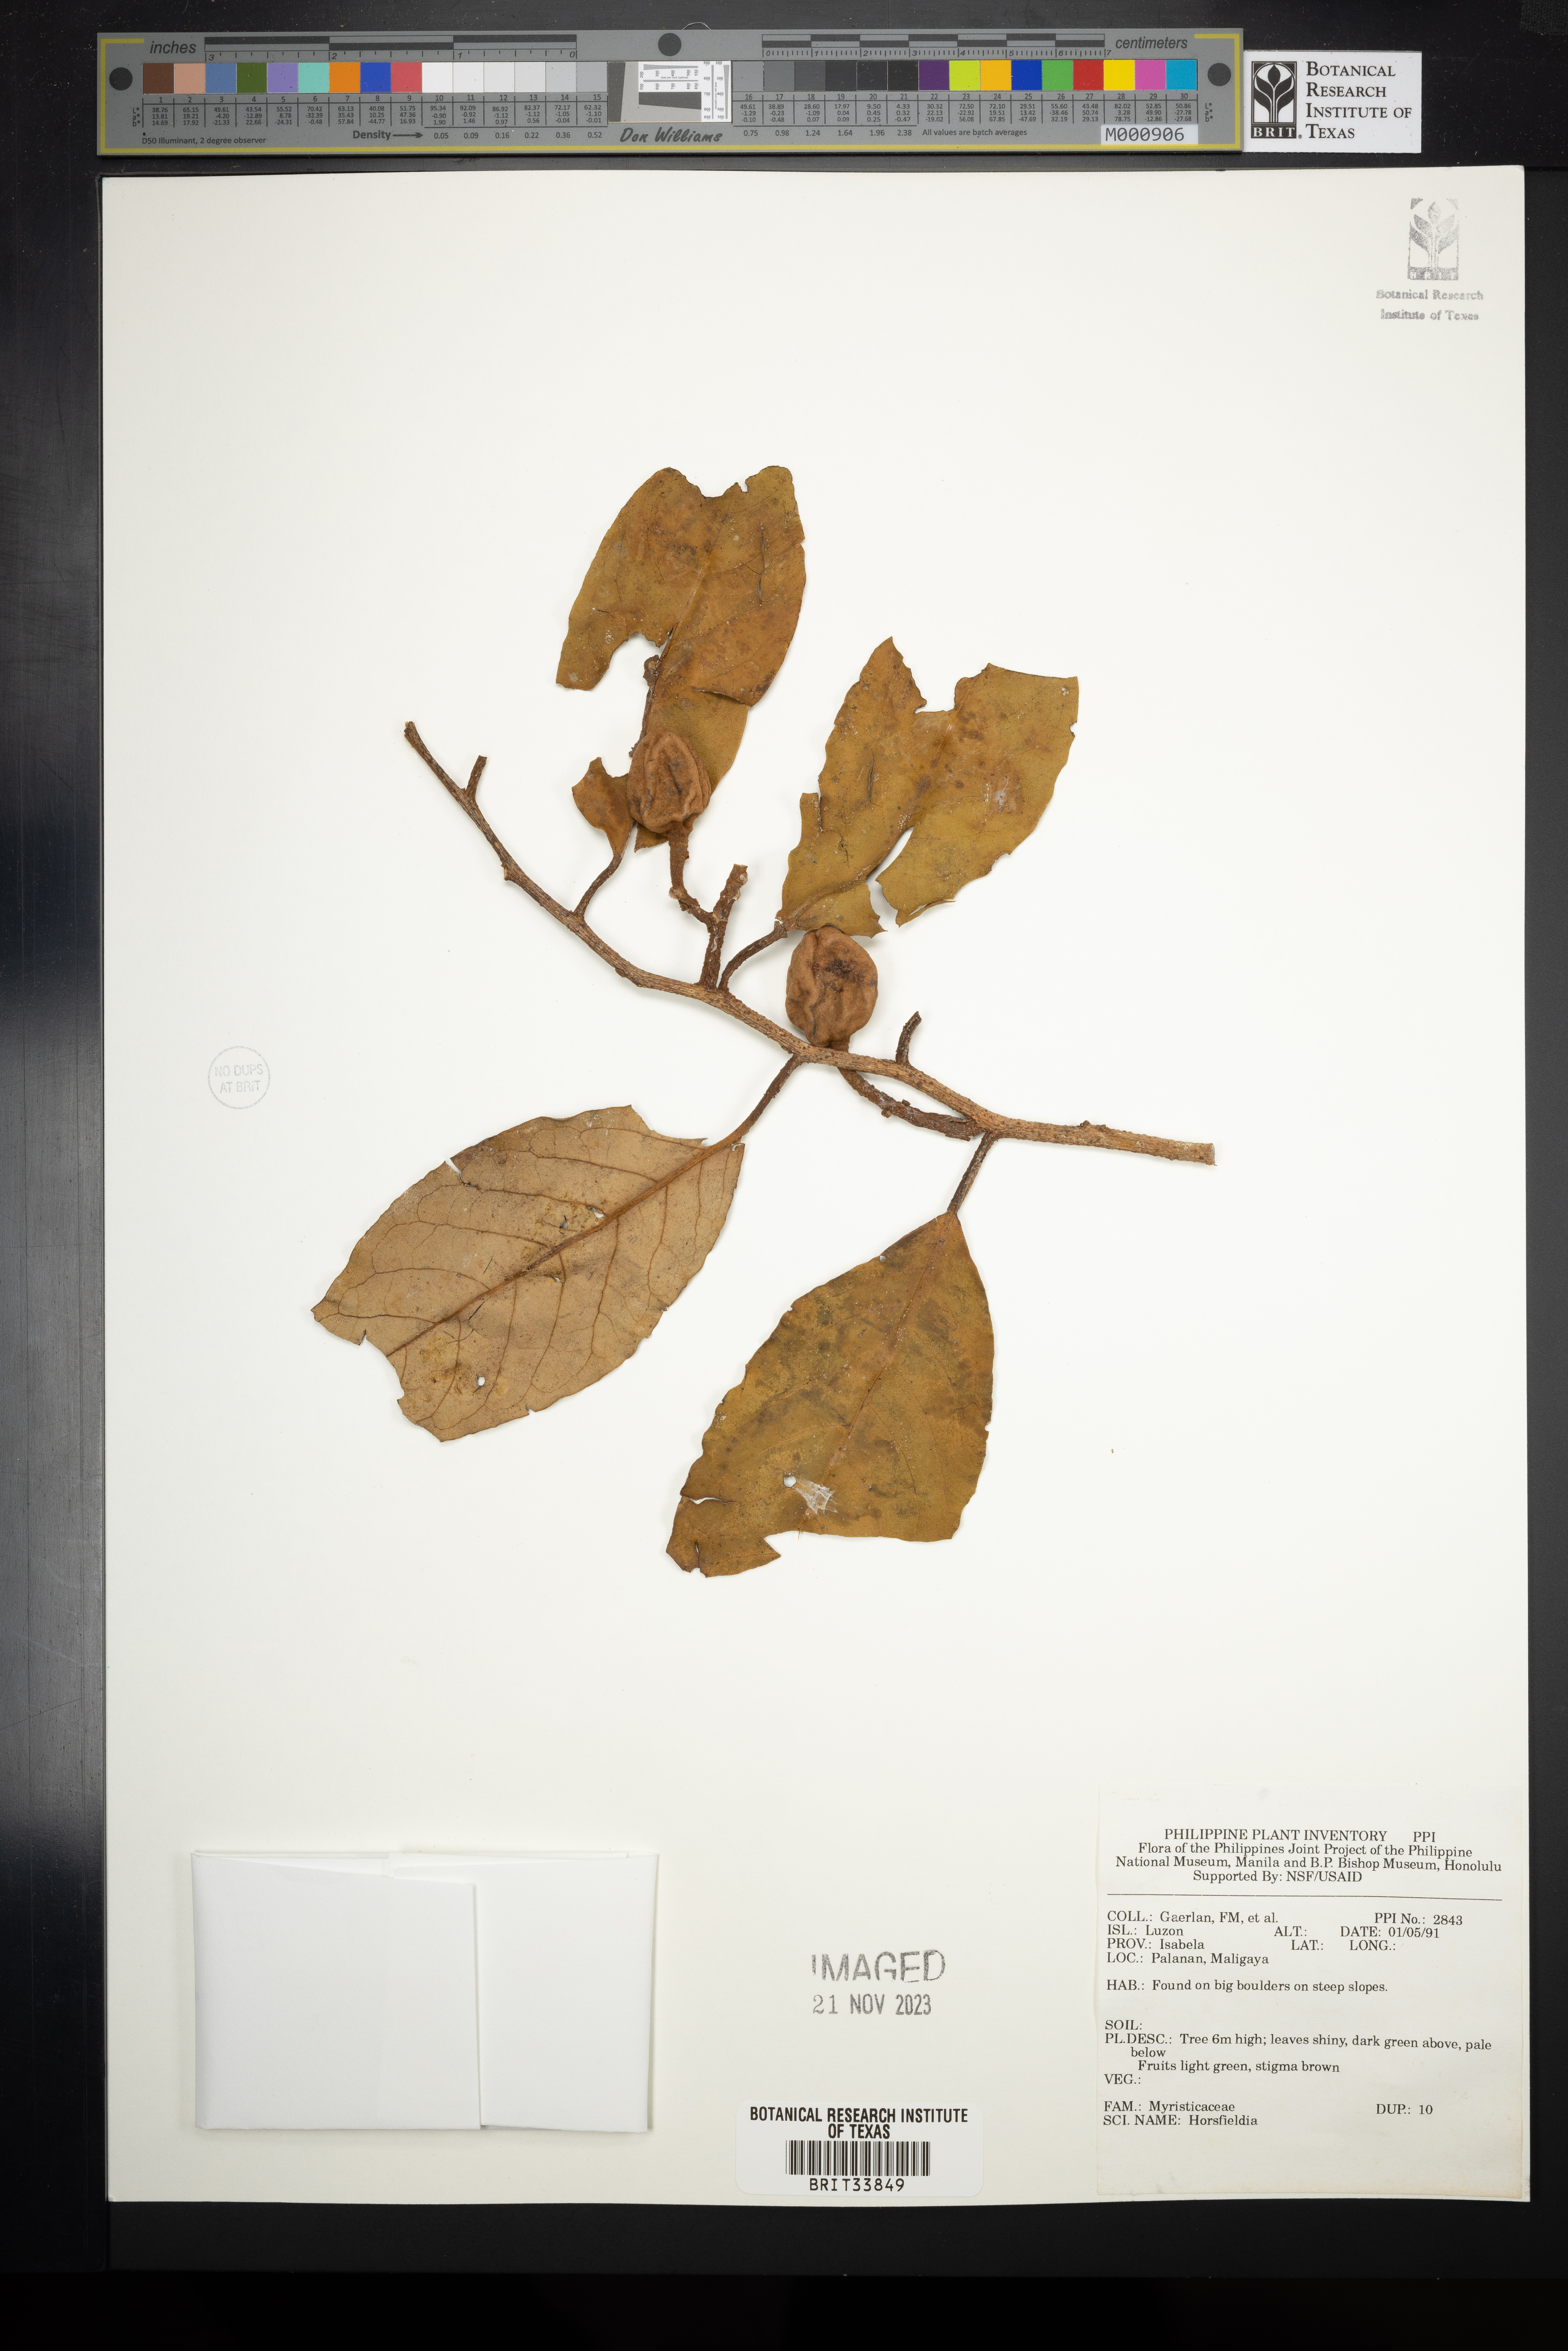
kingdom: Plantae
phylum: Tracheophyta
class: Magnoliopsida
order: Magnoliales
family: Myristicaceae
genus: Horsfieldia
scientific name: Horsfieldia
